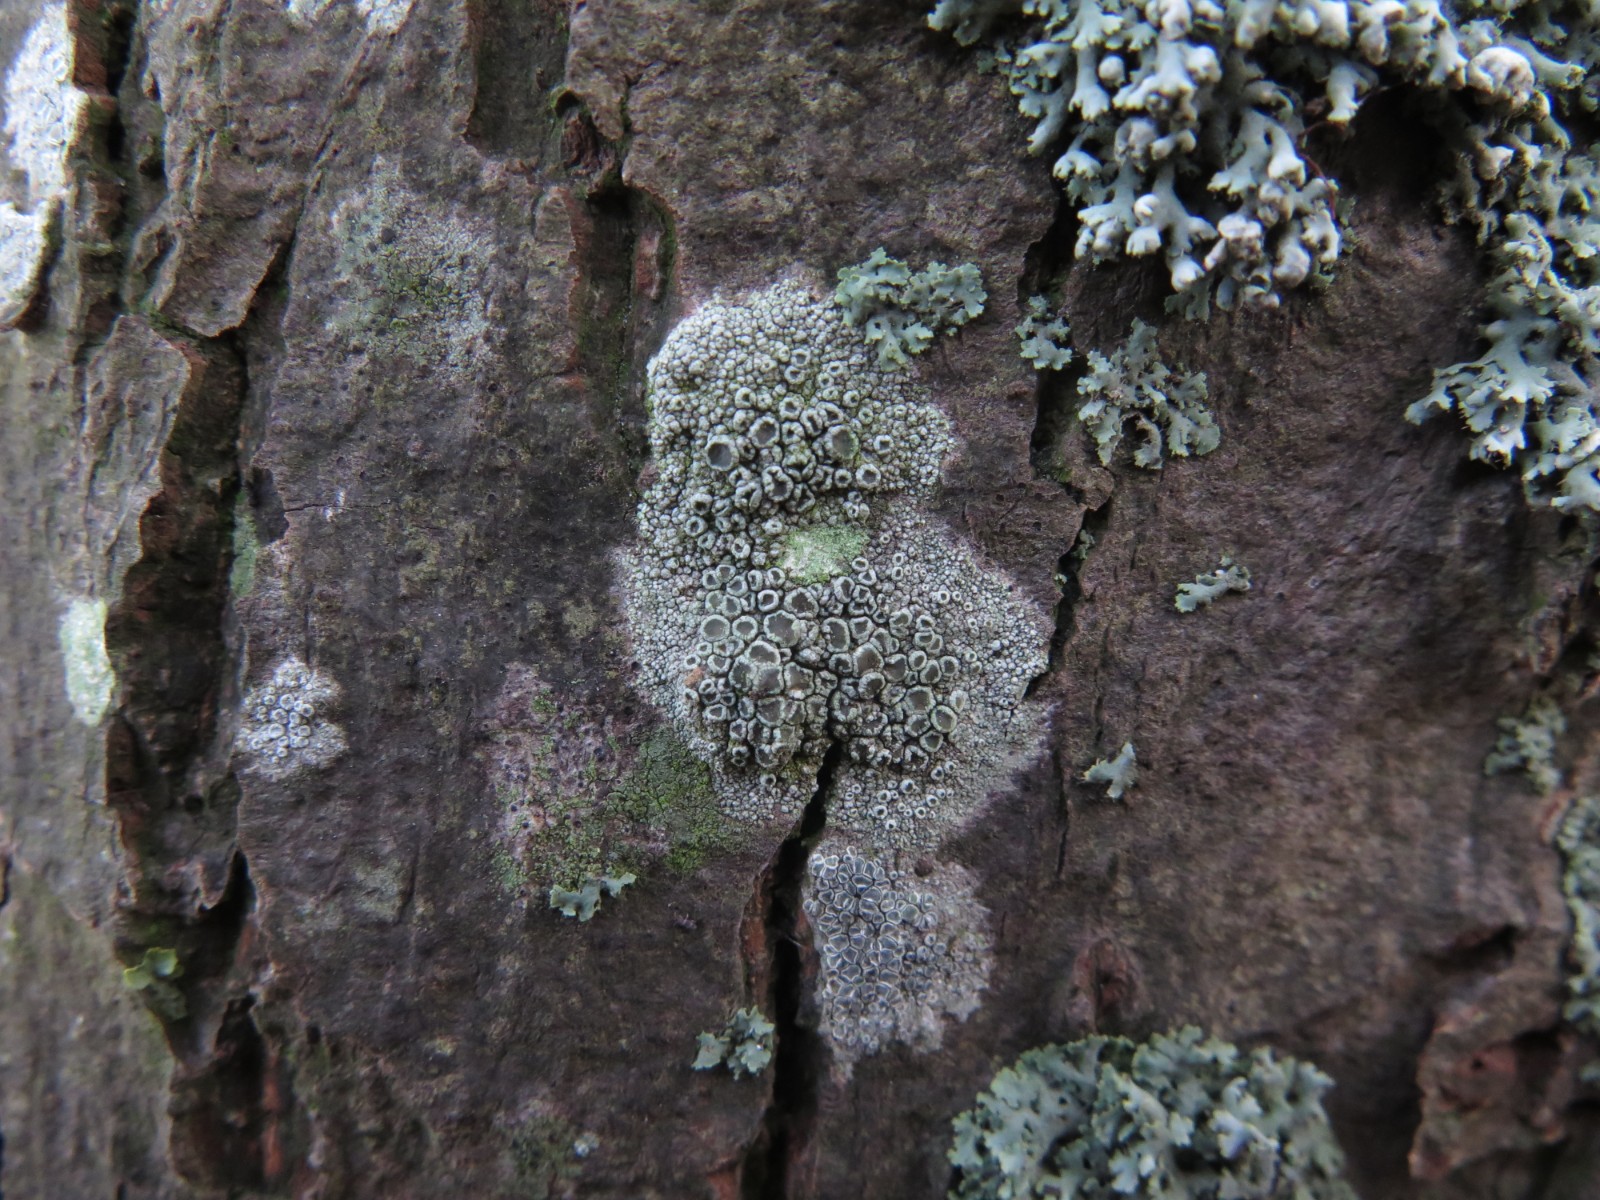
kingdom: Fungi
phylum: Ascomycota
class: Lecanoromycetes
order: Lecanorales
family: Lecanoraceae
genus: Lecanora
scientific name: Lecanora chlarotera
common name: brun kantskivelav
